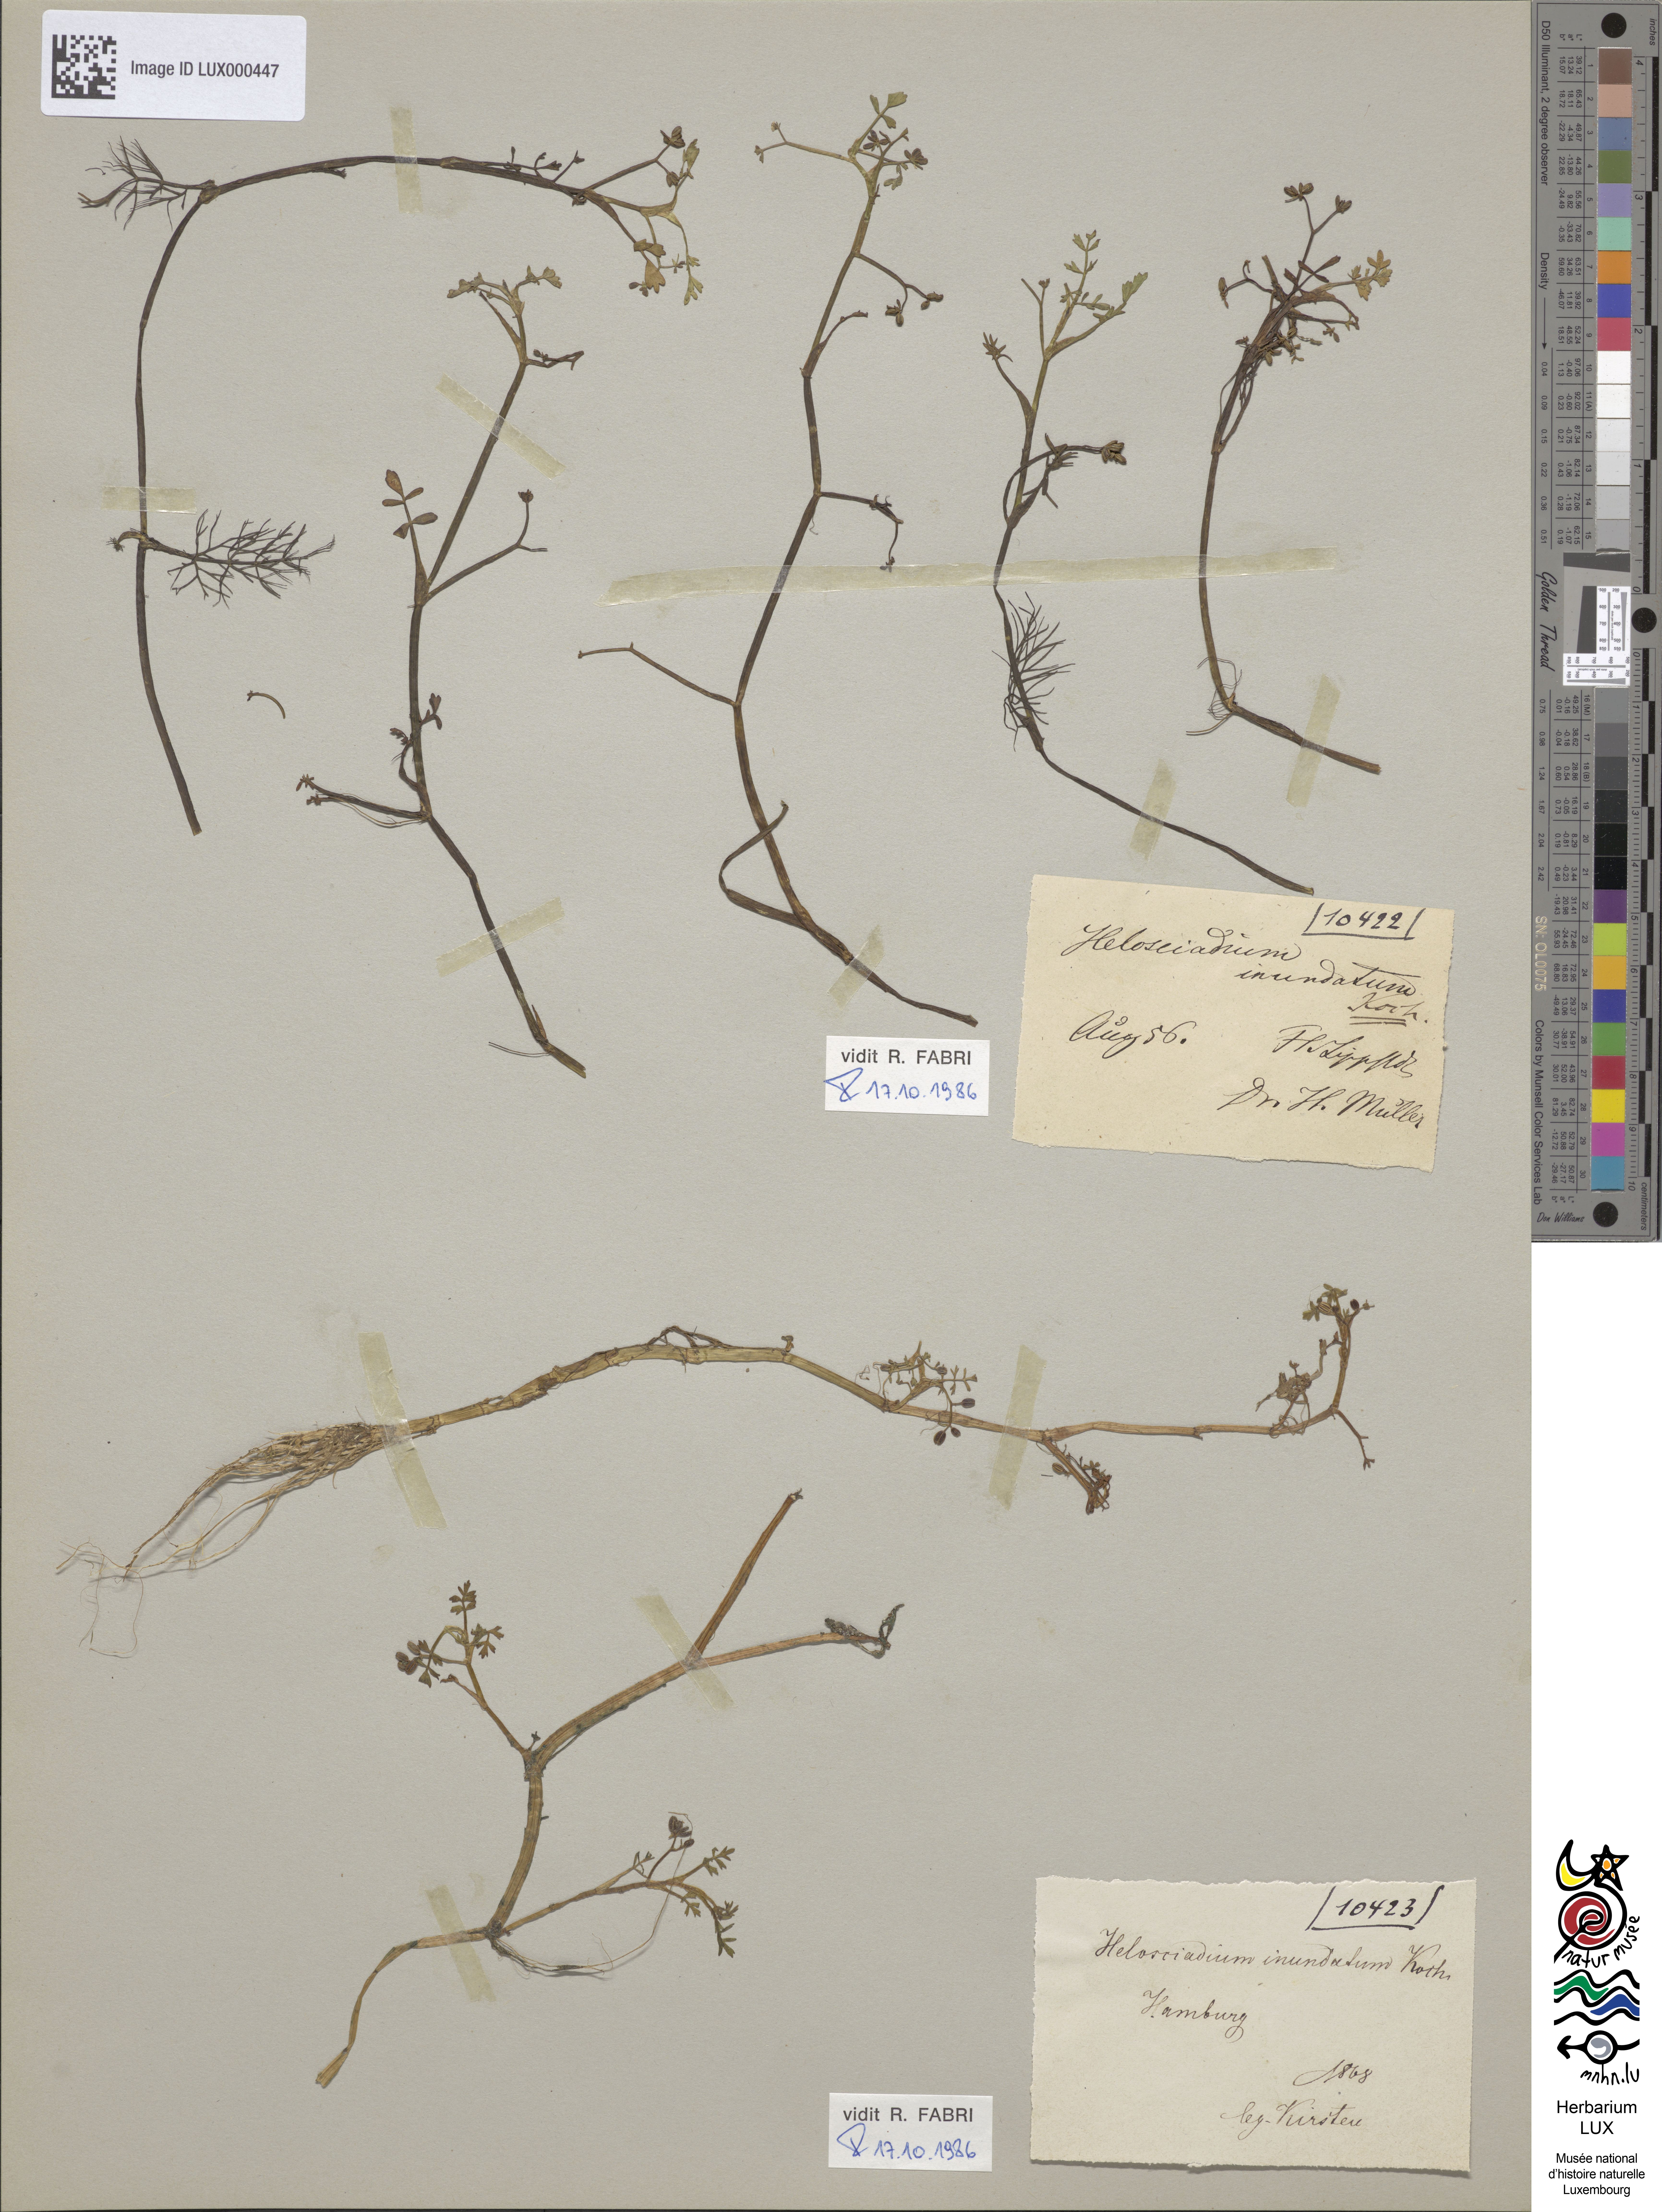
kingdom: Plantae
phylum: Tracheophyta
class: Magnoliopsida
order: Apiales
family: Apiaceae
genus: Helosciadium
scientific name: Helosciadium inundatum
